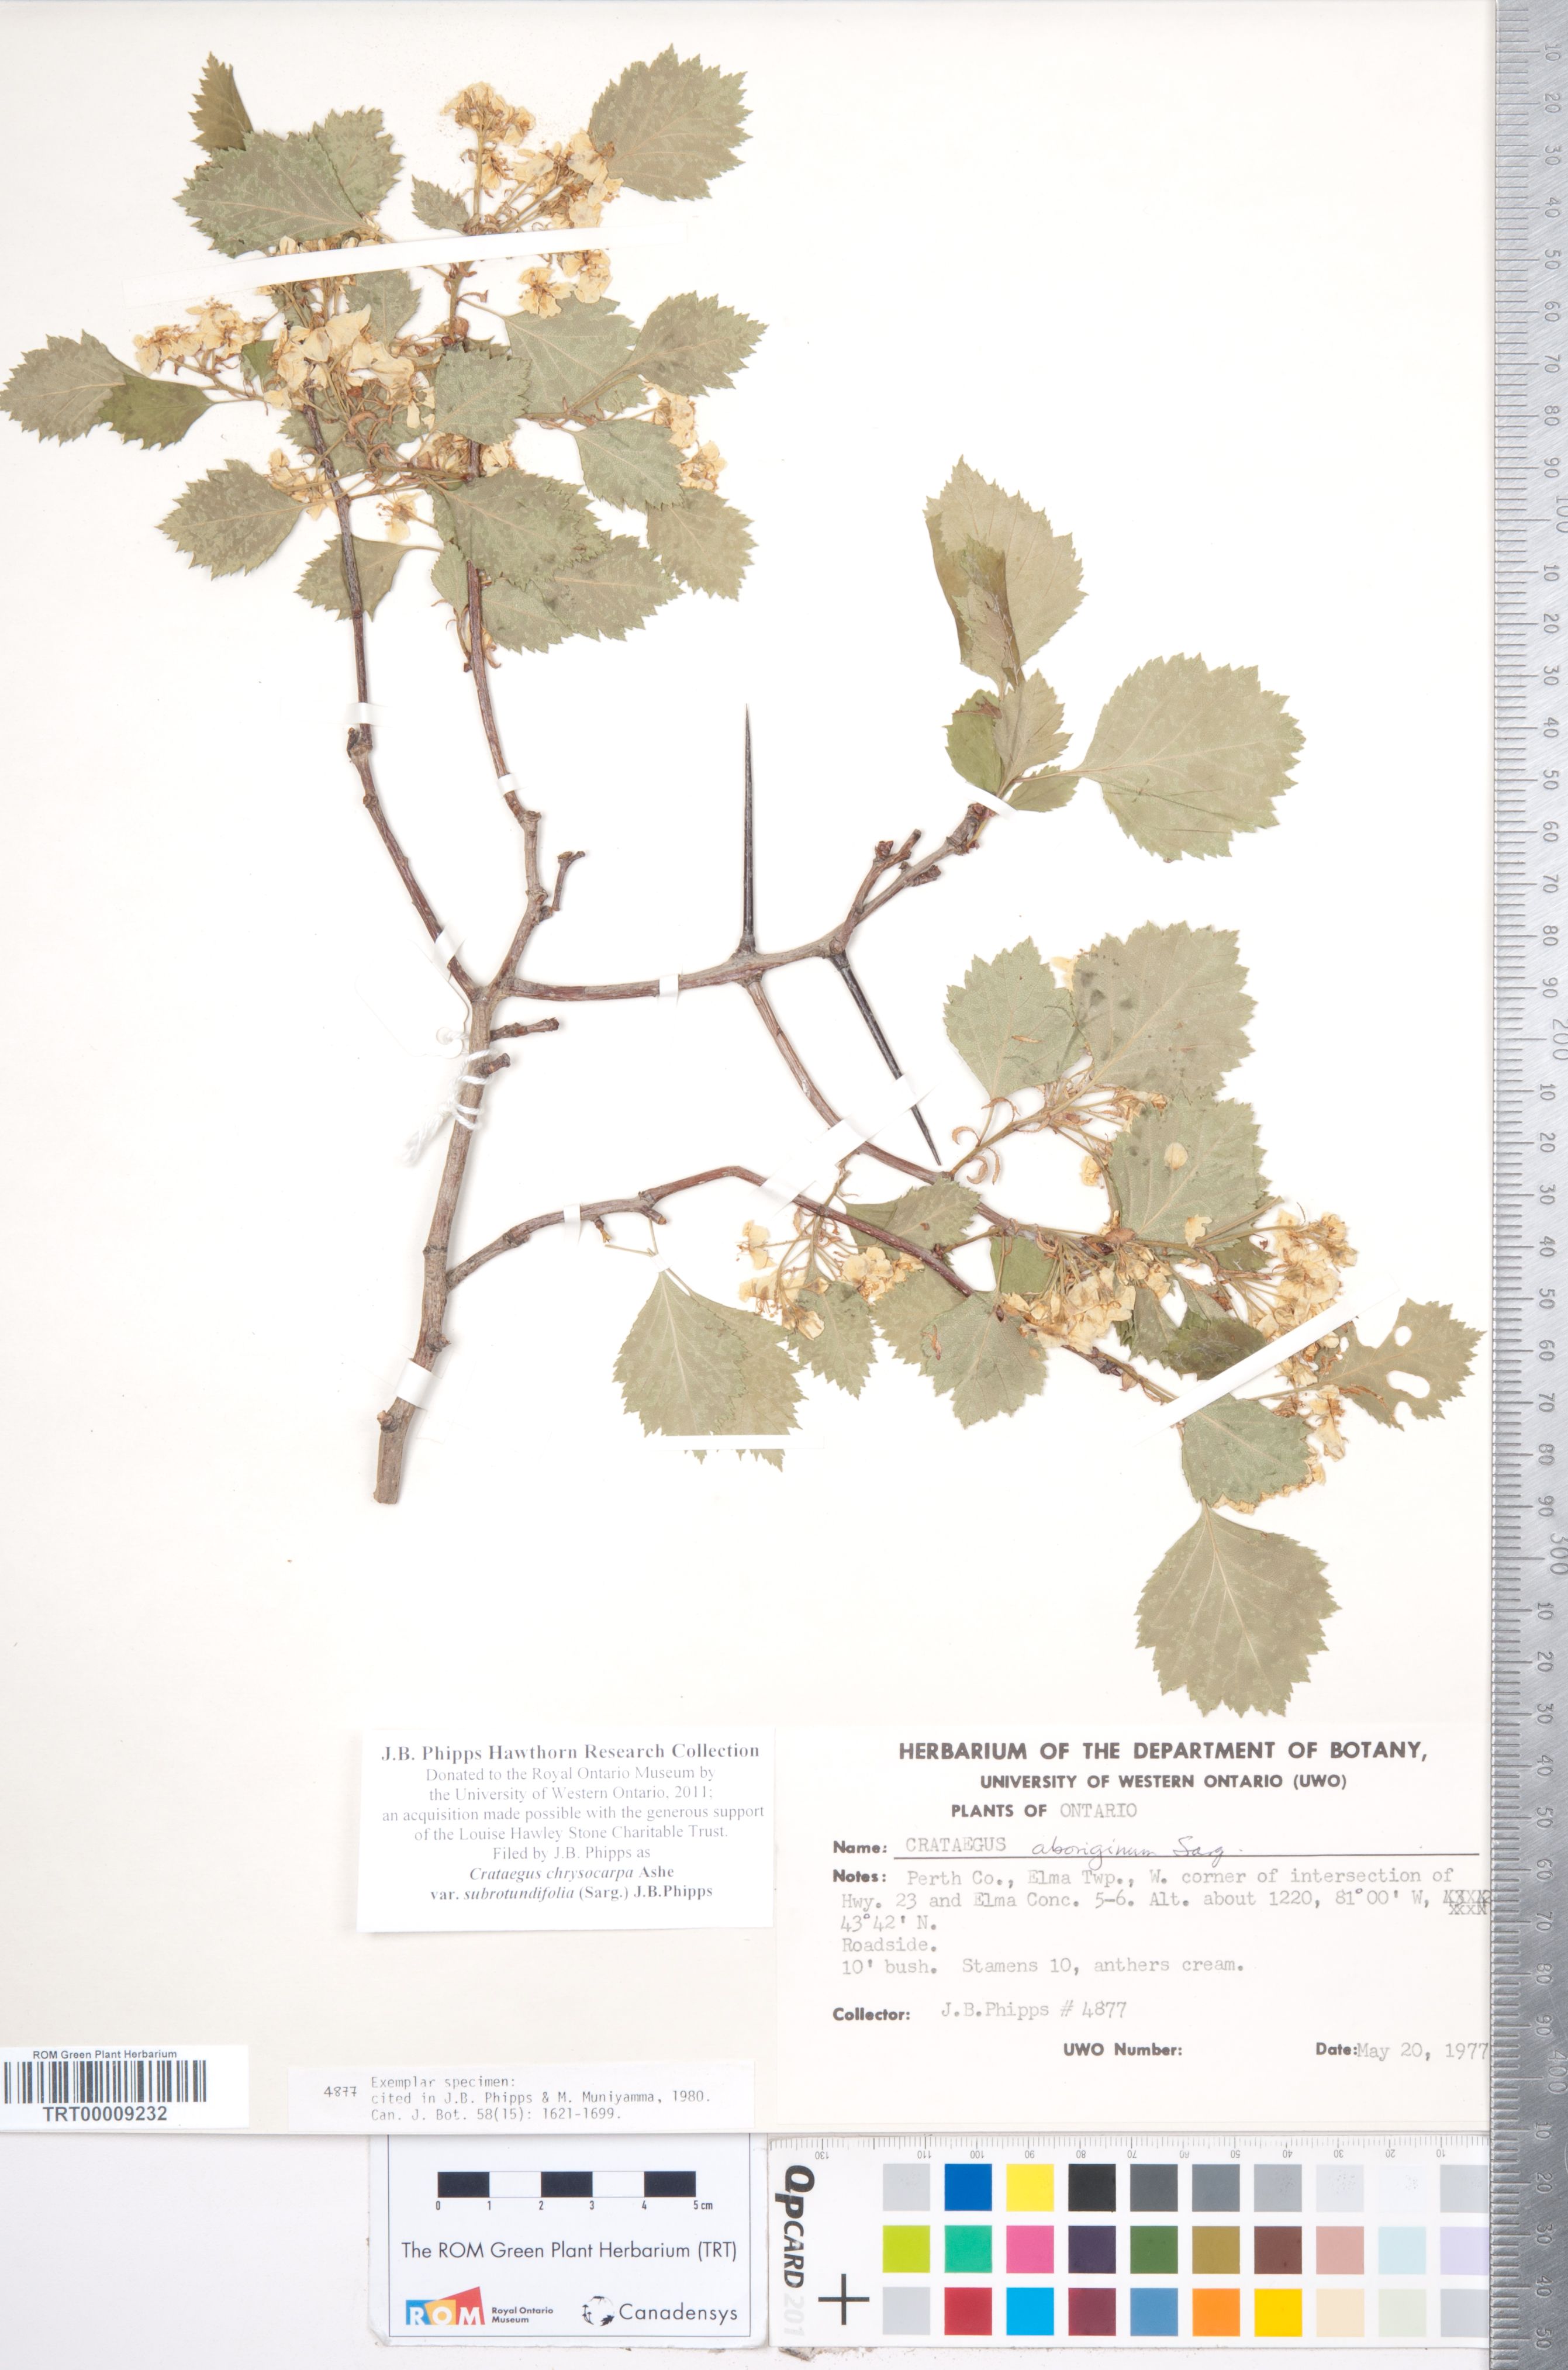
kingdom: Plantae
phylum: Tracheophyta
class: Magnoliopsida
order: Rosales
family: Rosaceae
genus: Crataegus
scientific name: Crataegus chrysocarpa
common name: Fire-berry hawthorn
